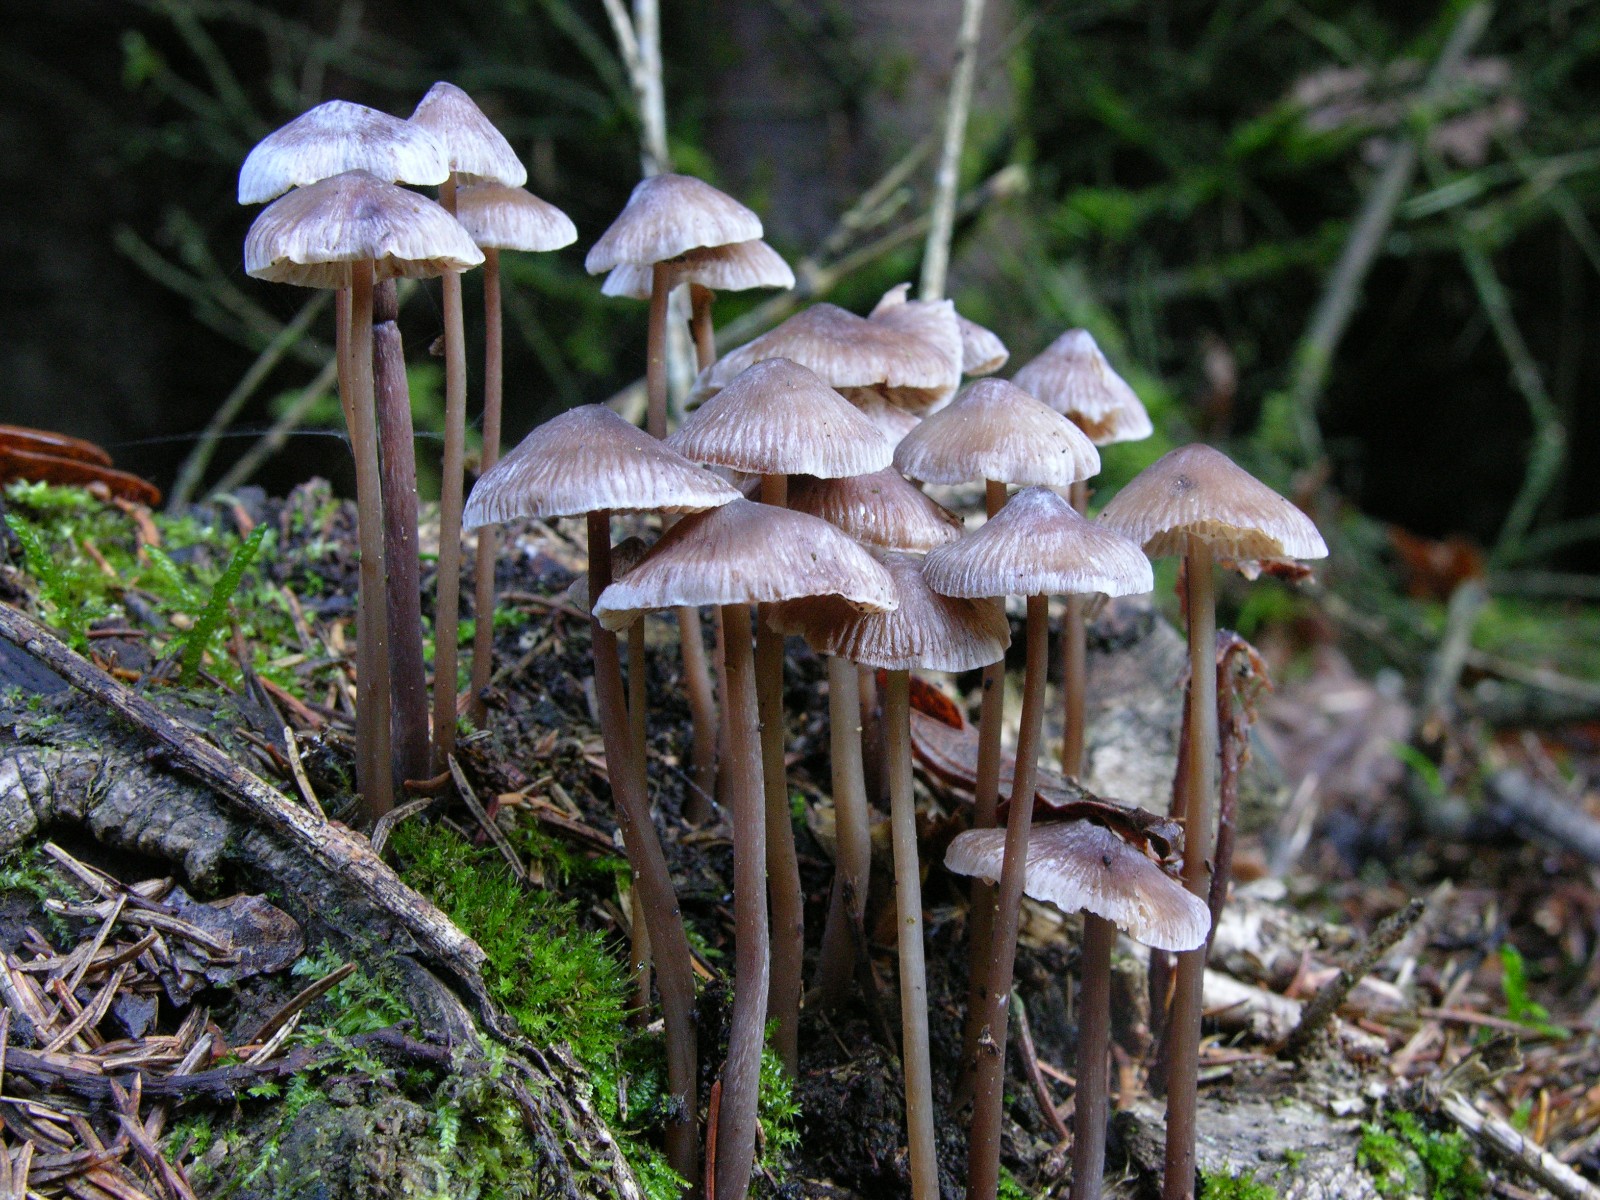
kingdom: Fungi
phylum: Basidiomycota
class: Agaricomycetes
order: Agaricales
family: Mycenaceae
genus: Mycena
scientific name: Mycena
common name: huesvamp
